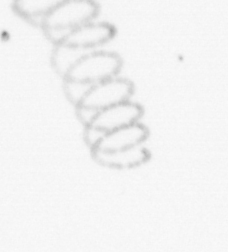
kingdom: Chromista
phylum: Ochrophyta
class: Bacillariophyceae
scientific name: Bacillariophyceae
